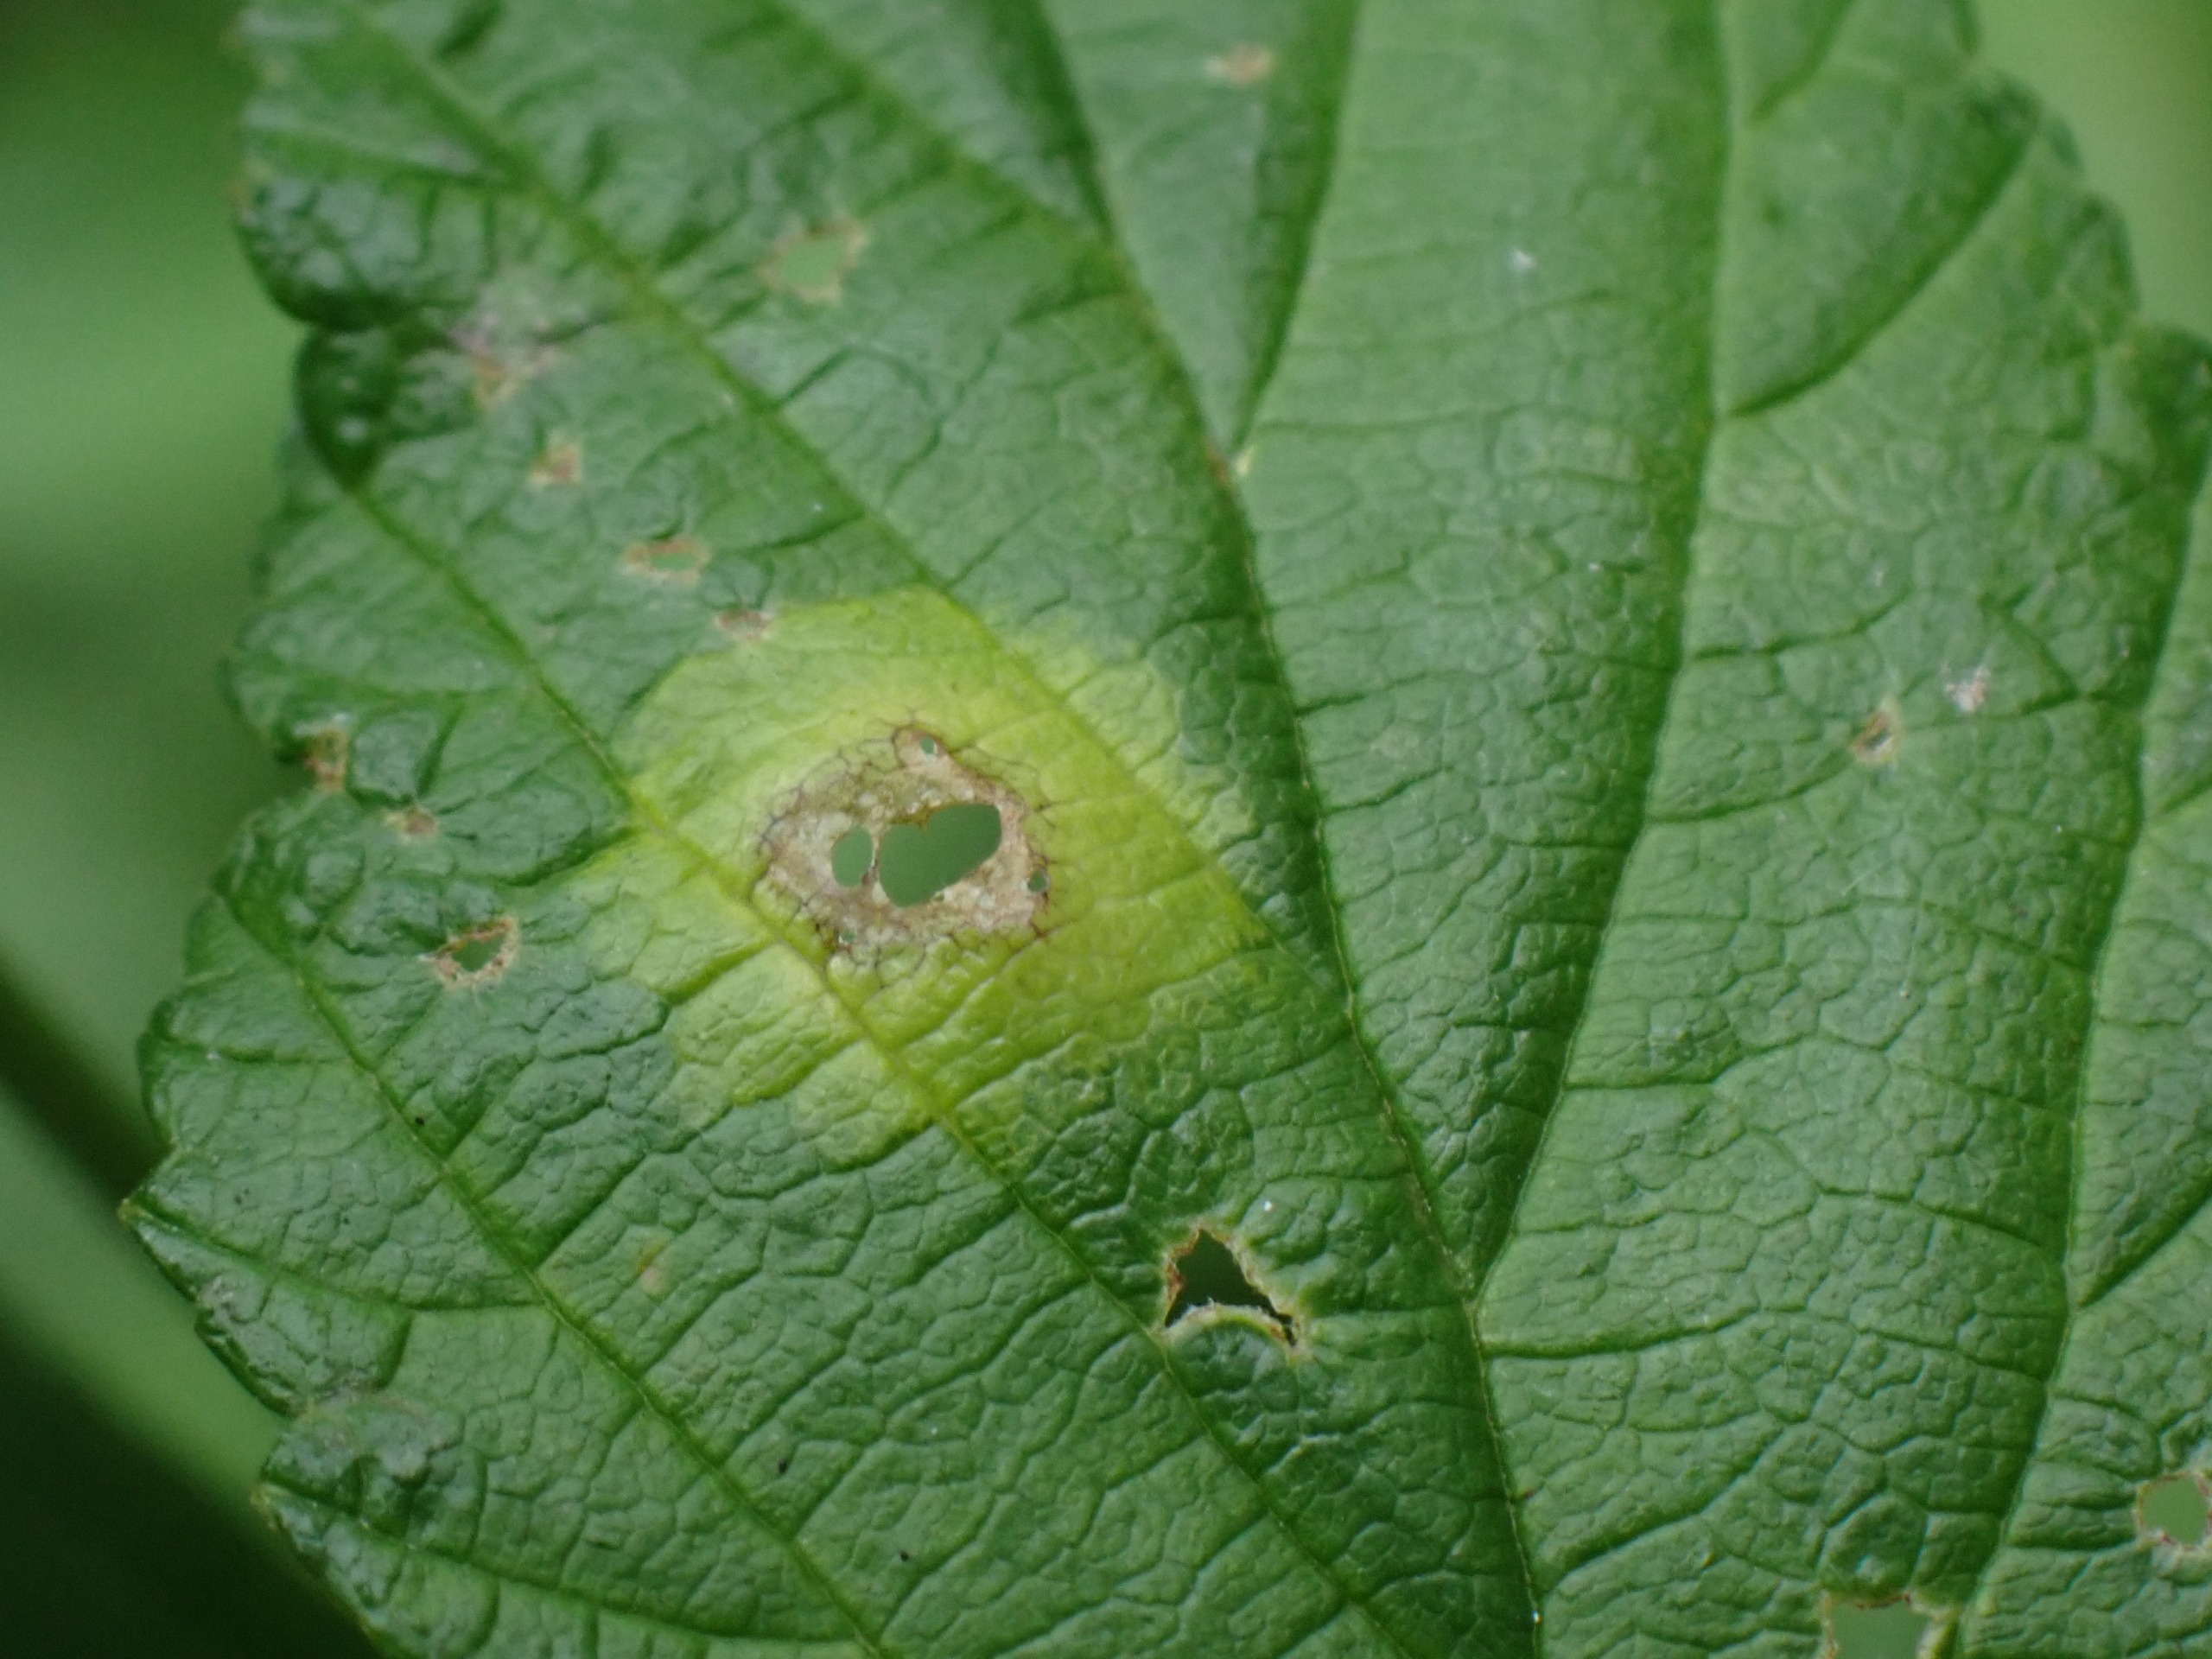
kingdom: Animalia
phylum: Arthropoda
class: Insecta
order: Diptera
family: Cecidomyiidae
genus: Dasineura
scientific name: Dasineura pustulans
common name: Mjødurtblistgalmyg
